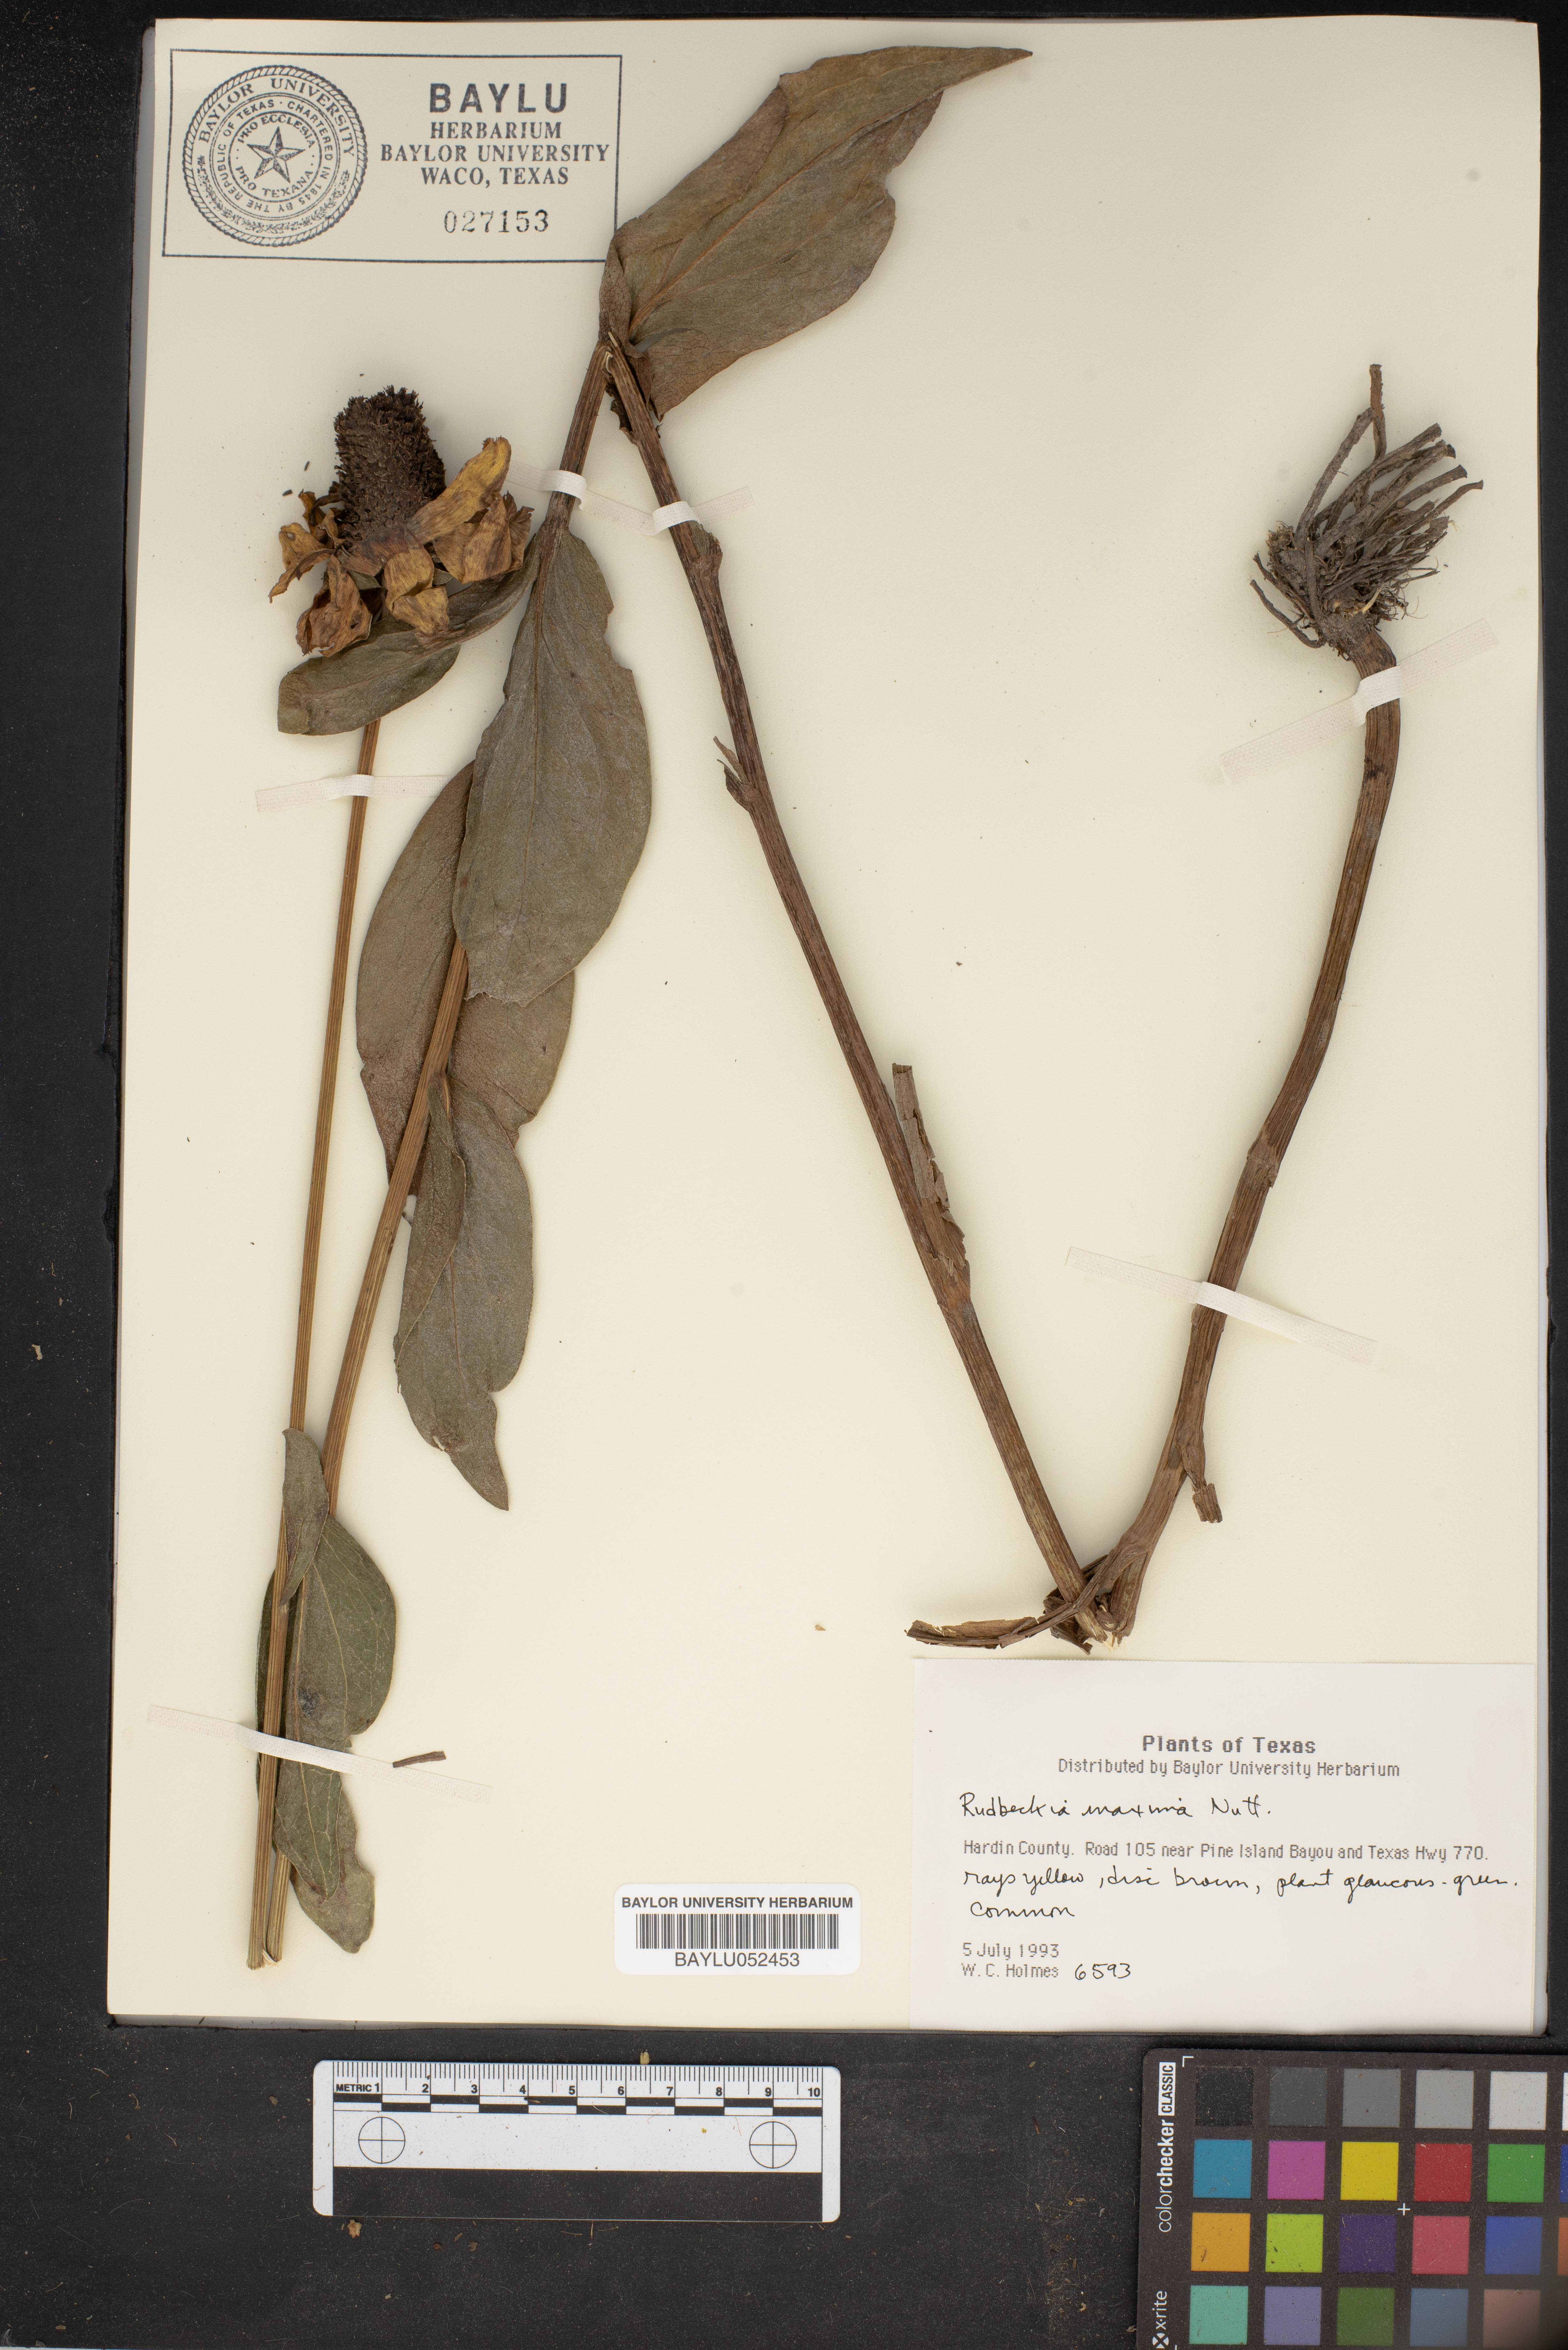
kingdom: Plantae
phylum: Tracheophyta
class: Magnoliopsida
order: Asterales
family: Asteraceae
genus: Rudbeckia
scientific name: Rudbeckia maxima
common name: Cabbage coneflower
